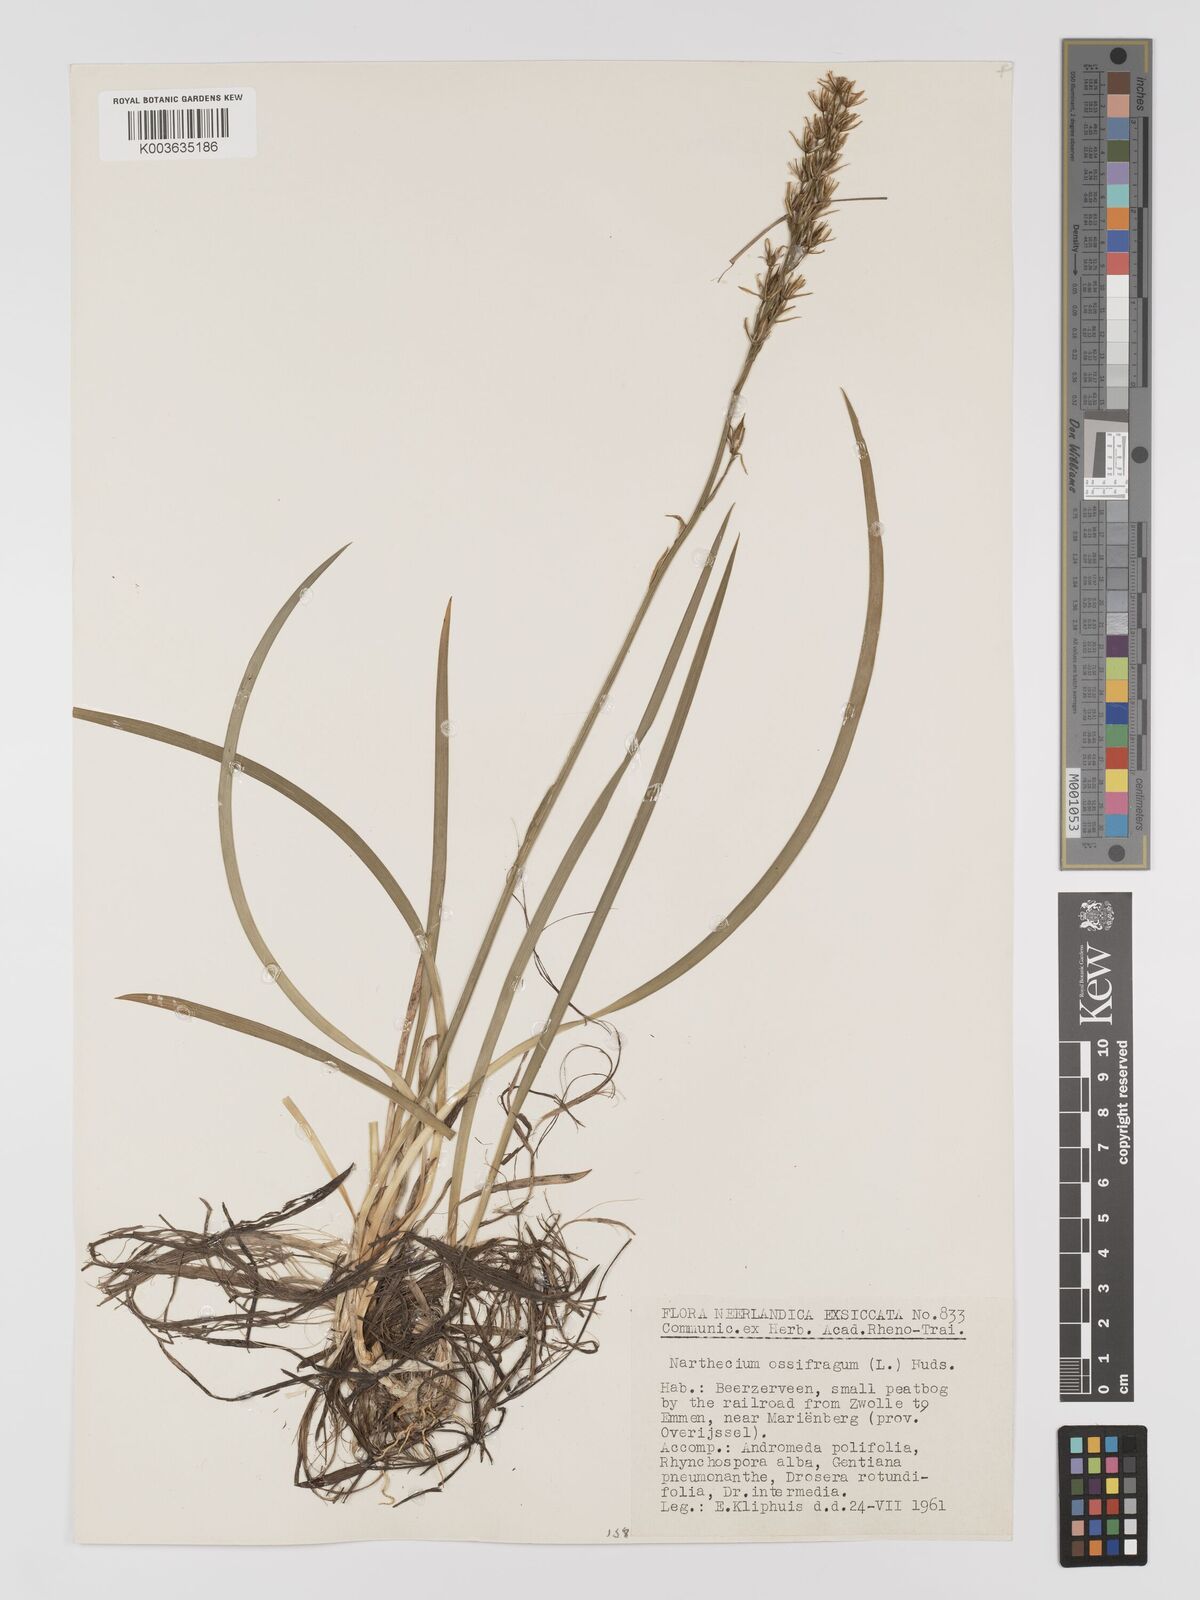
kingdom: Plantae
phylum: Tracheophyta
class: Liliopsida
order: Dioscoreales
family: Nartheciaceae
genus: Narthecium
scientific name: Narthecium
